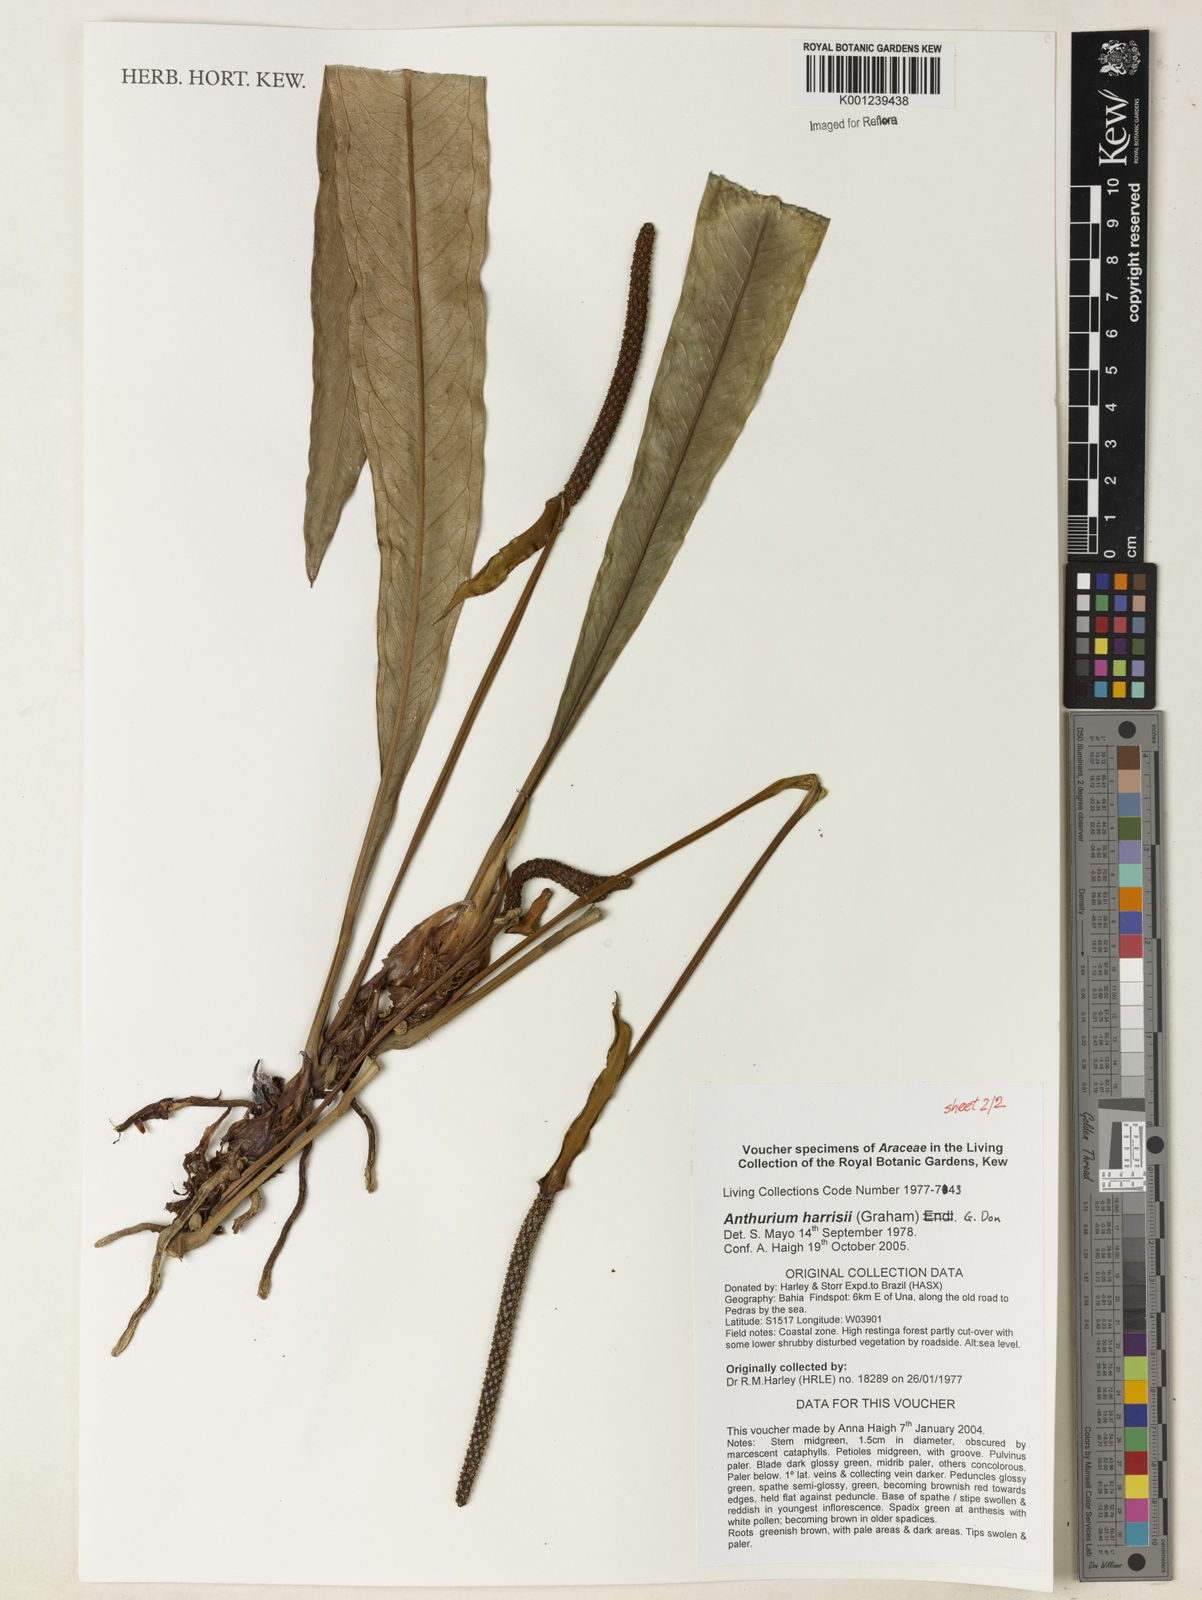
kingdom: Plantae
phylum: Tracheophyta
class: Liliopsida
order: Alismatales
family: Araceae
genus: Anthurium
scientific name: Anthurium harrisii
